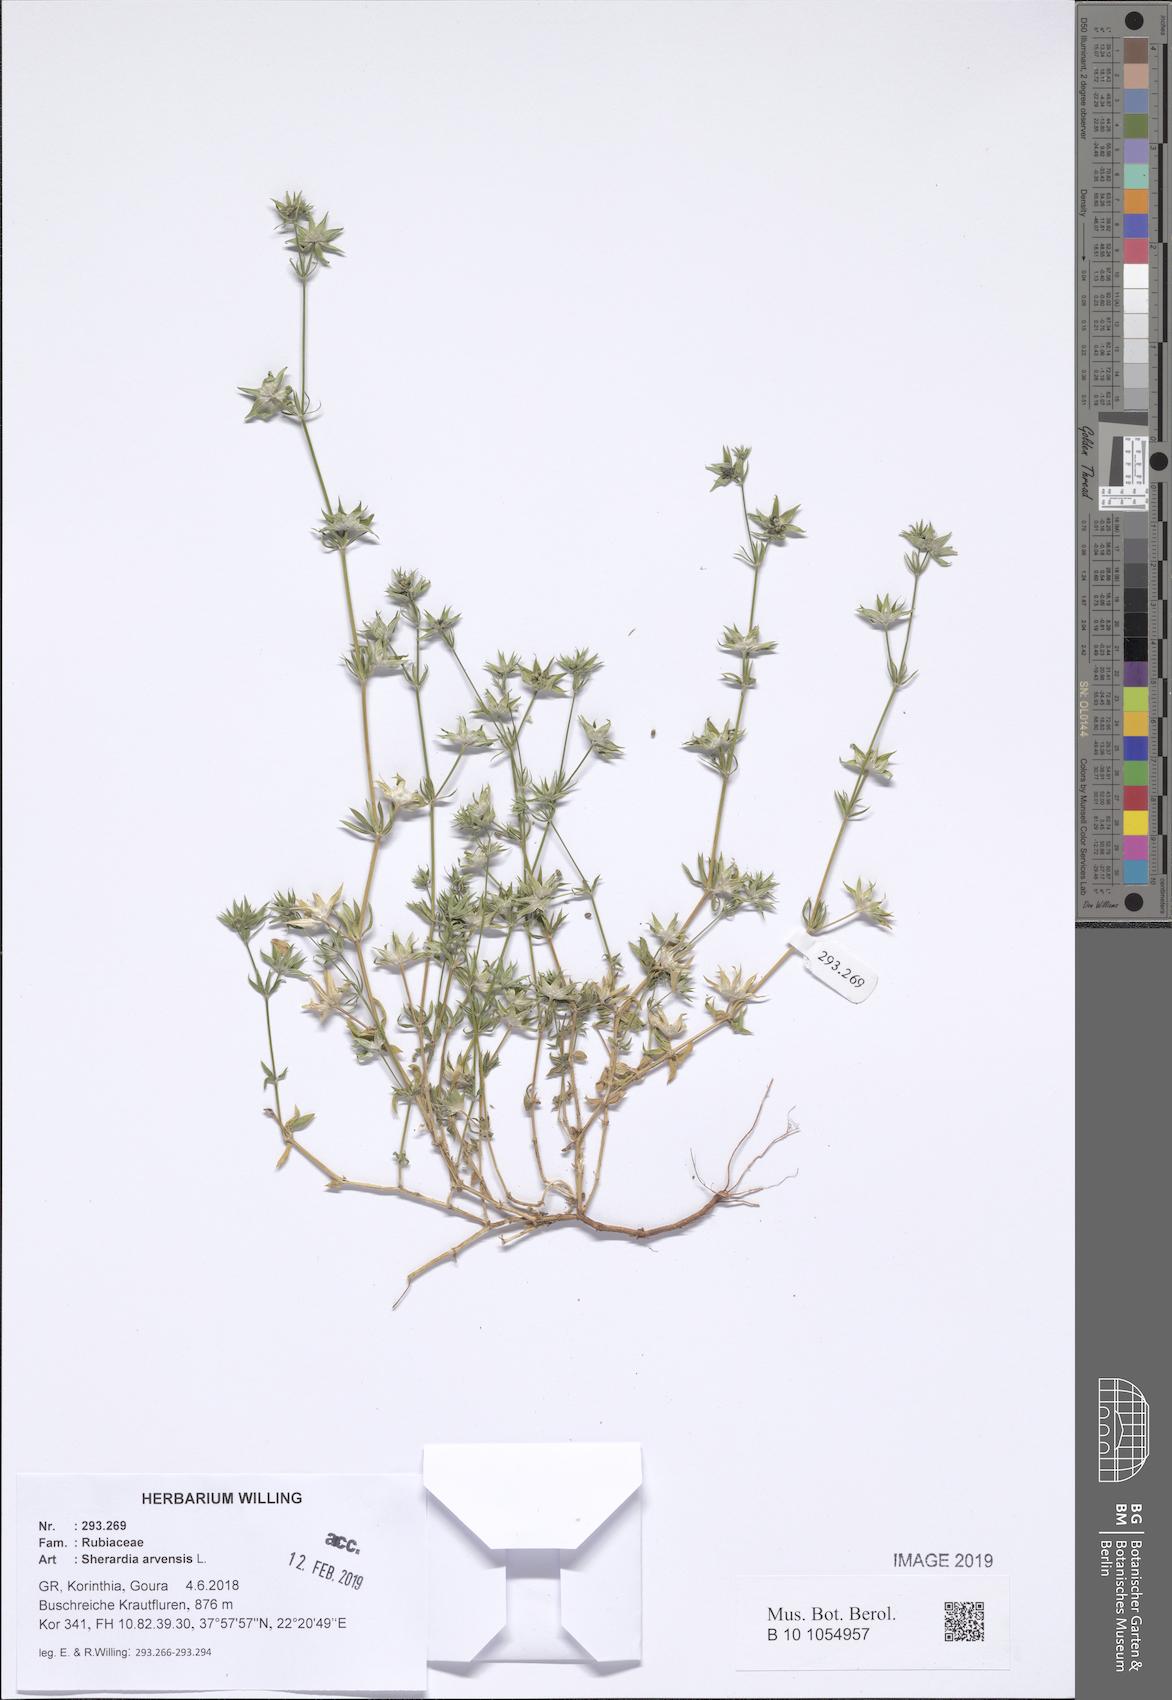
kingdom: Plantae
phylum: Tracheophyta
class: Magnoliopsida
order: Gentianales
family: Rubiaceae
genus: Sherardia
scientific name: Sherardia arvensis
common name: Field madder
